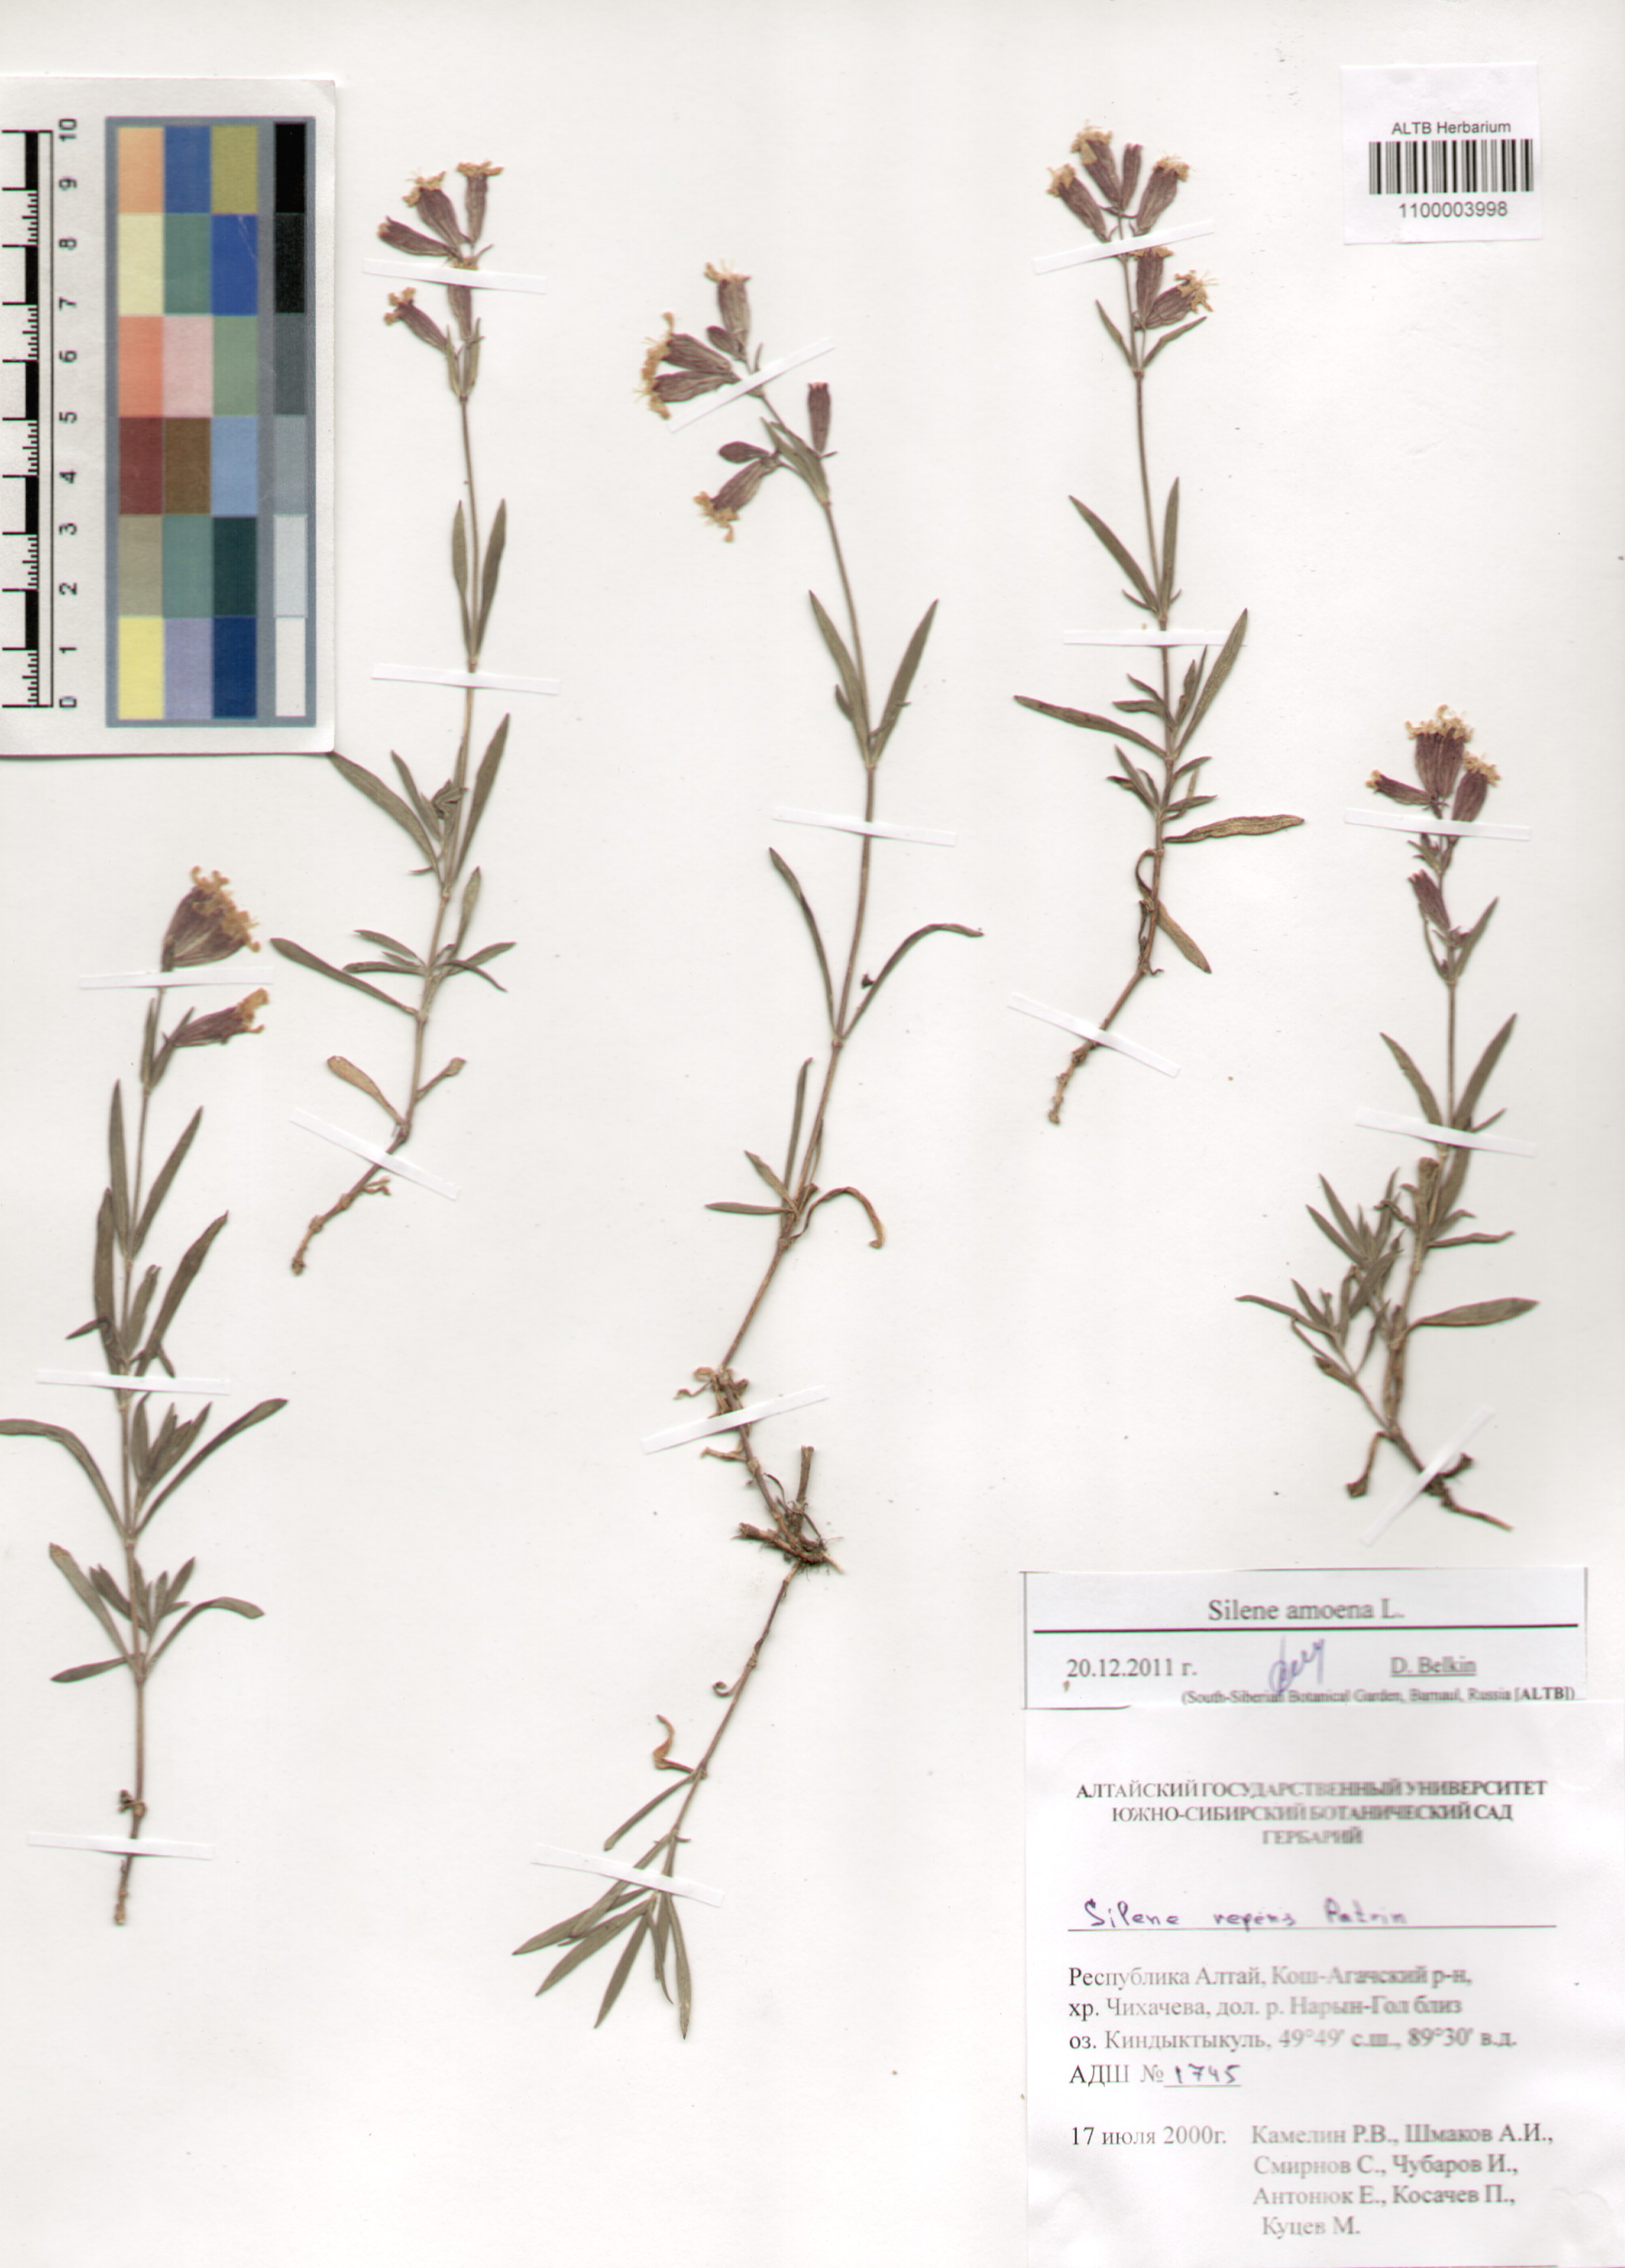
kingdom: Plantae
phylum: Tracheophyta
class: Magnoliopsida
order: Caryophyllales
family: Caryophyllaceae
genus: Silene
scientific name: Silene amoena
